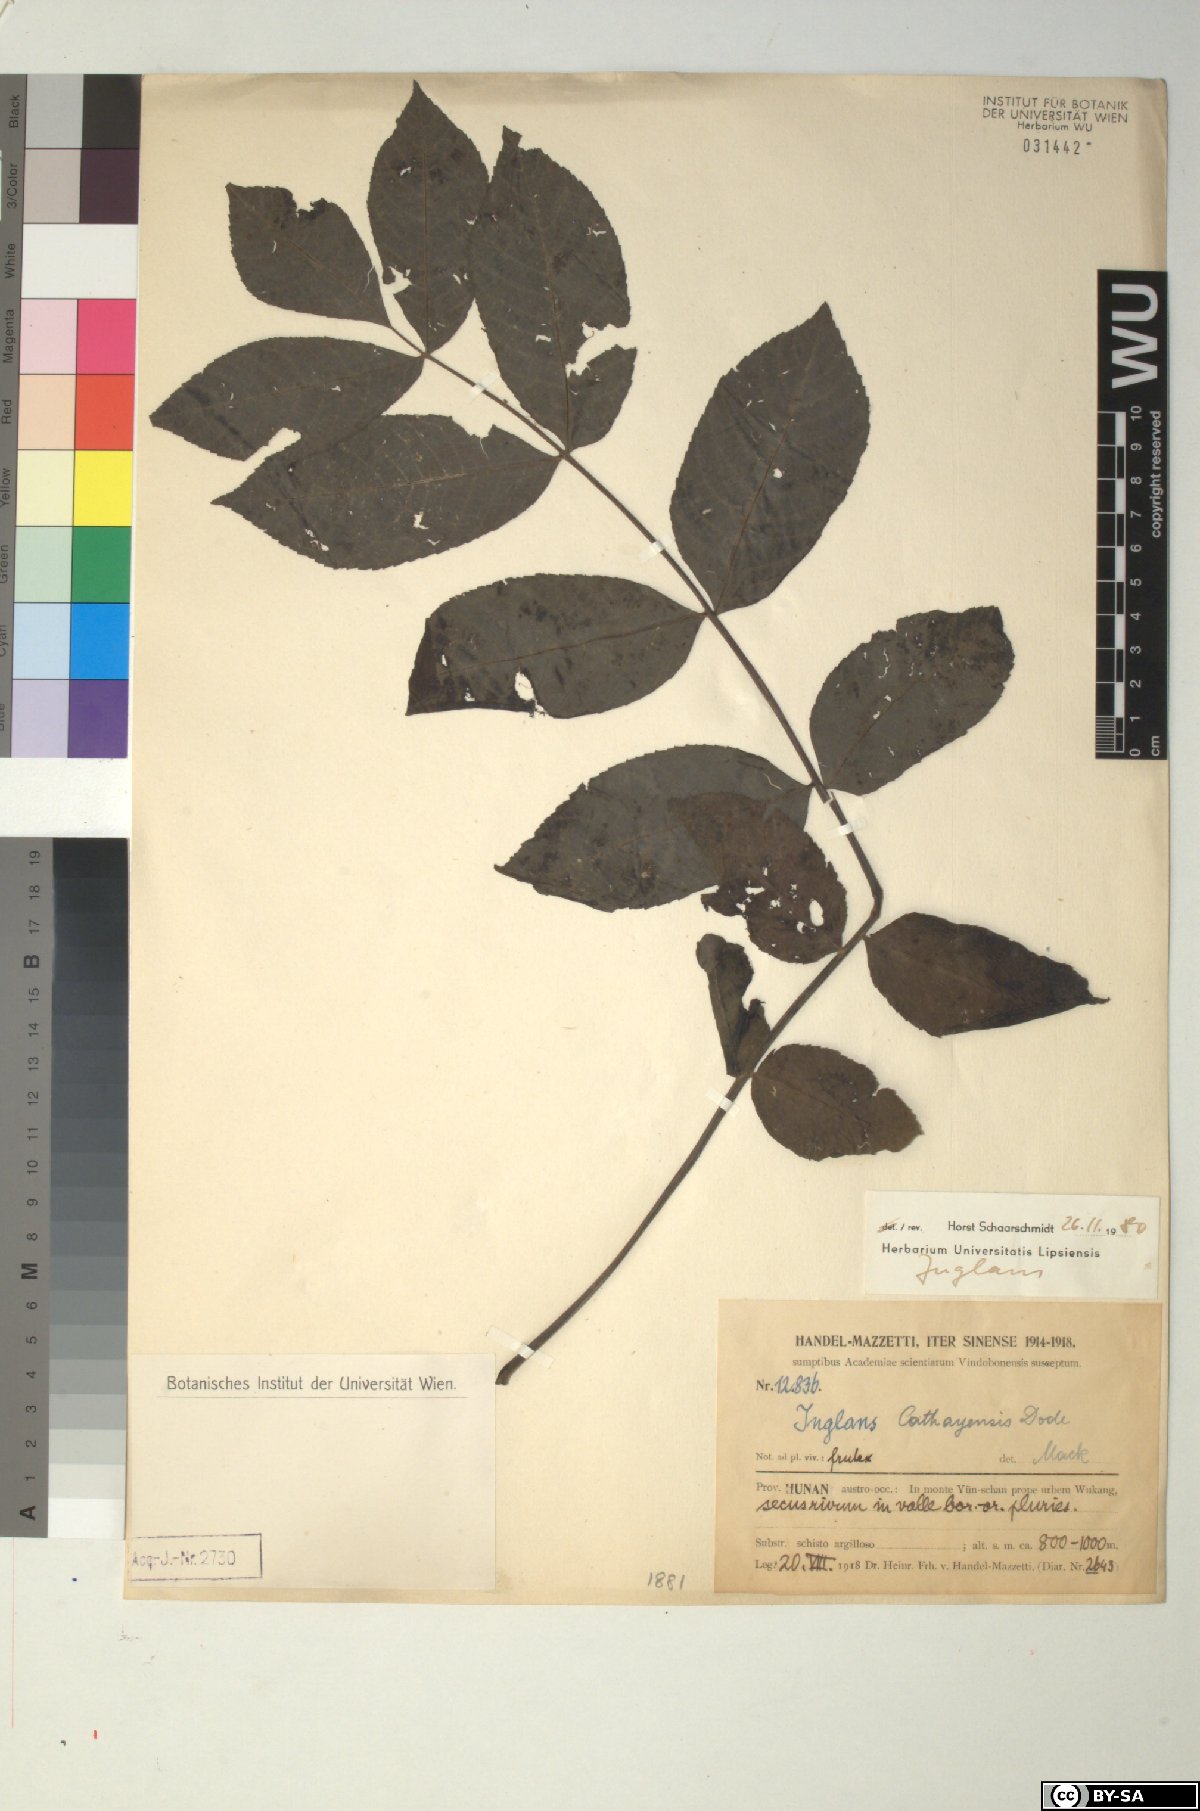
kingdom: Plantae
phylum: Tracheophyta
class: Magnoliopsida
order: Fagales
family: Juglandaceae
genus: Juglans
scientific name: Juglans
